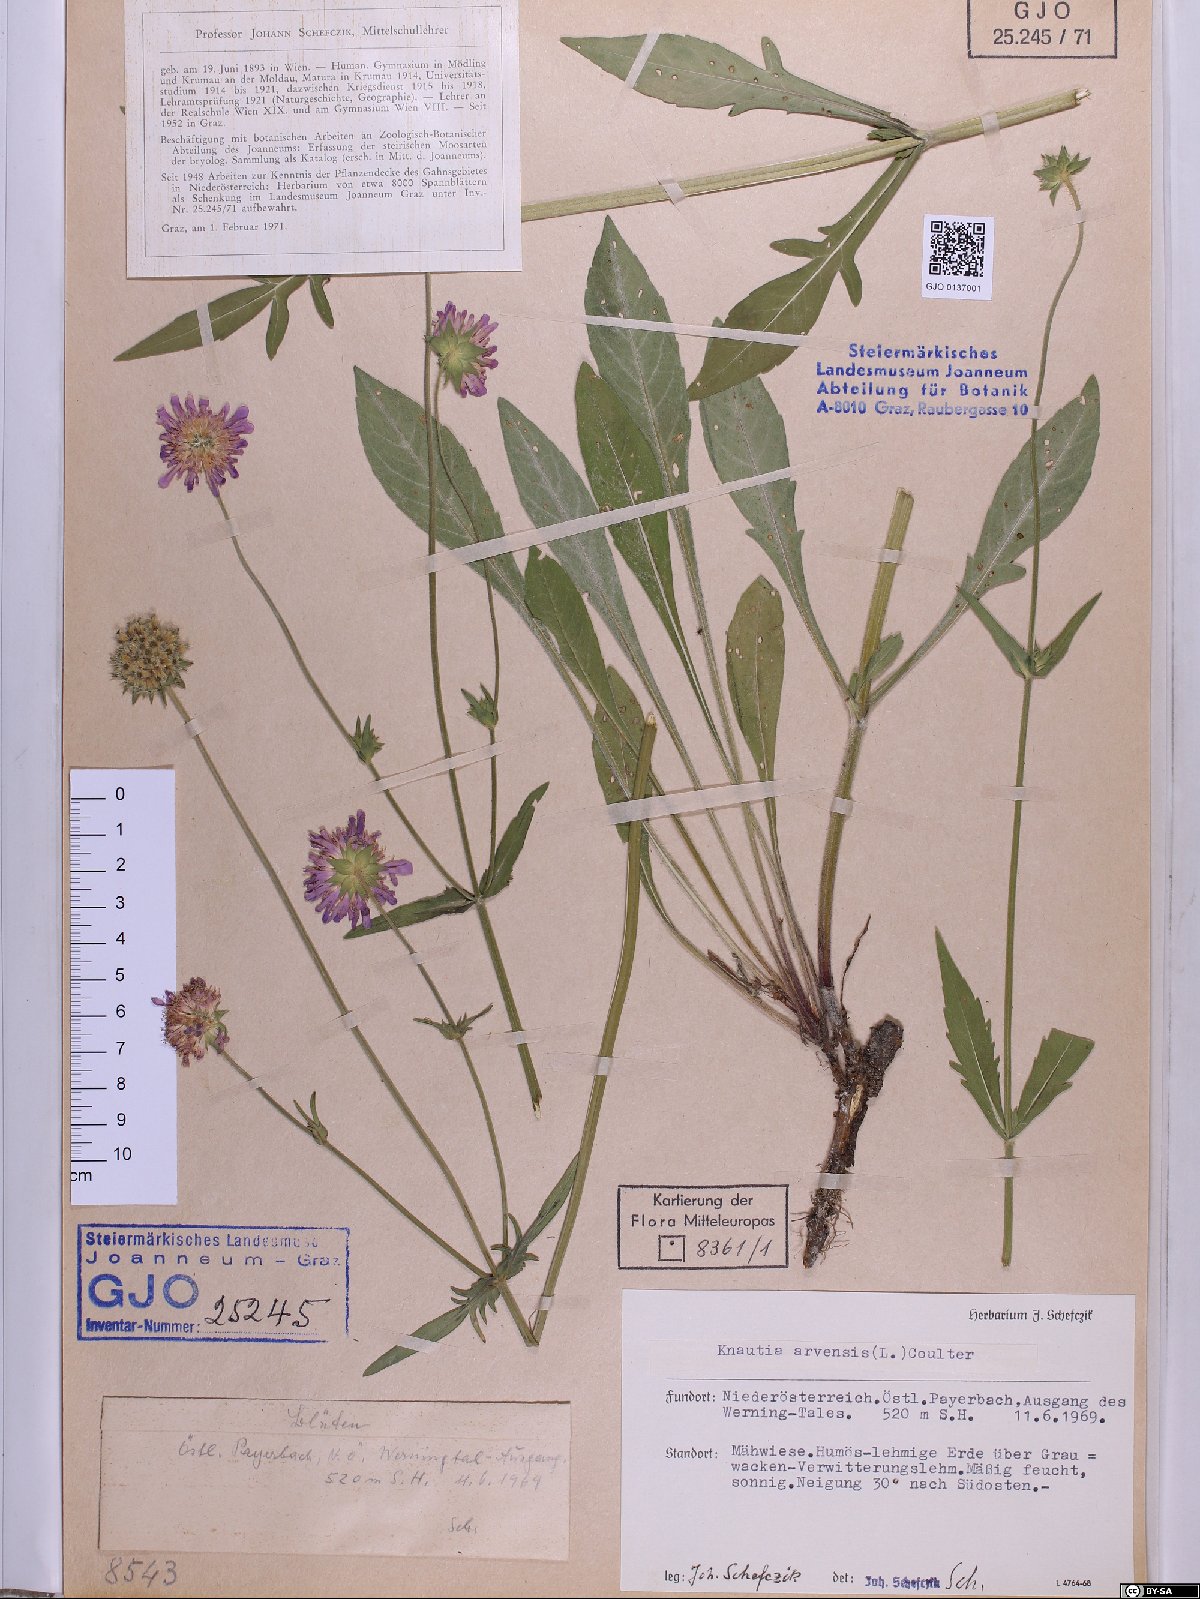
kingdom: Plantae
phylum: Tracheophyta
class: Magnoliopsida
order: Dipsacales
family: Caprifoliaceae
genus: Knautia
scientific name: Knautia arvensis
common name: Field scabiosa
